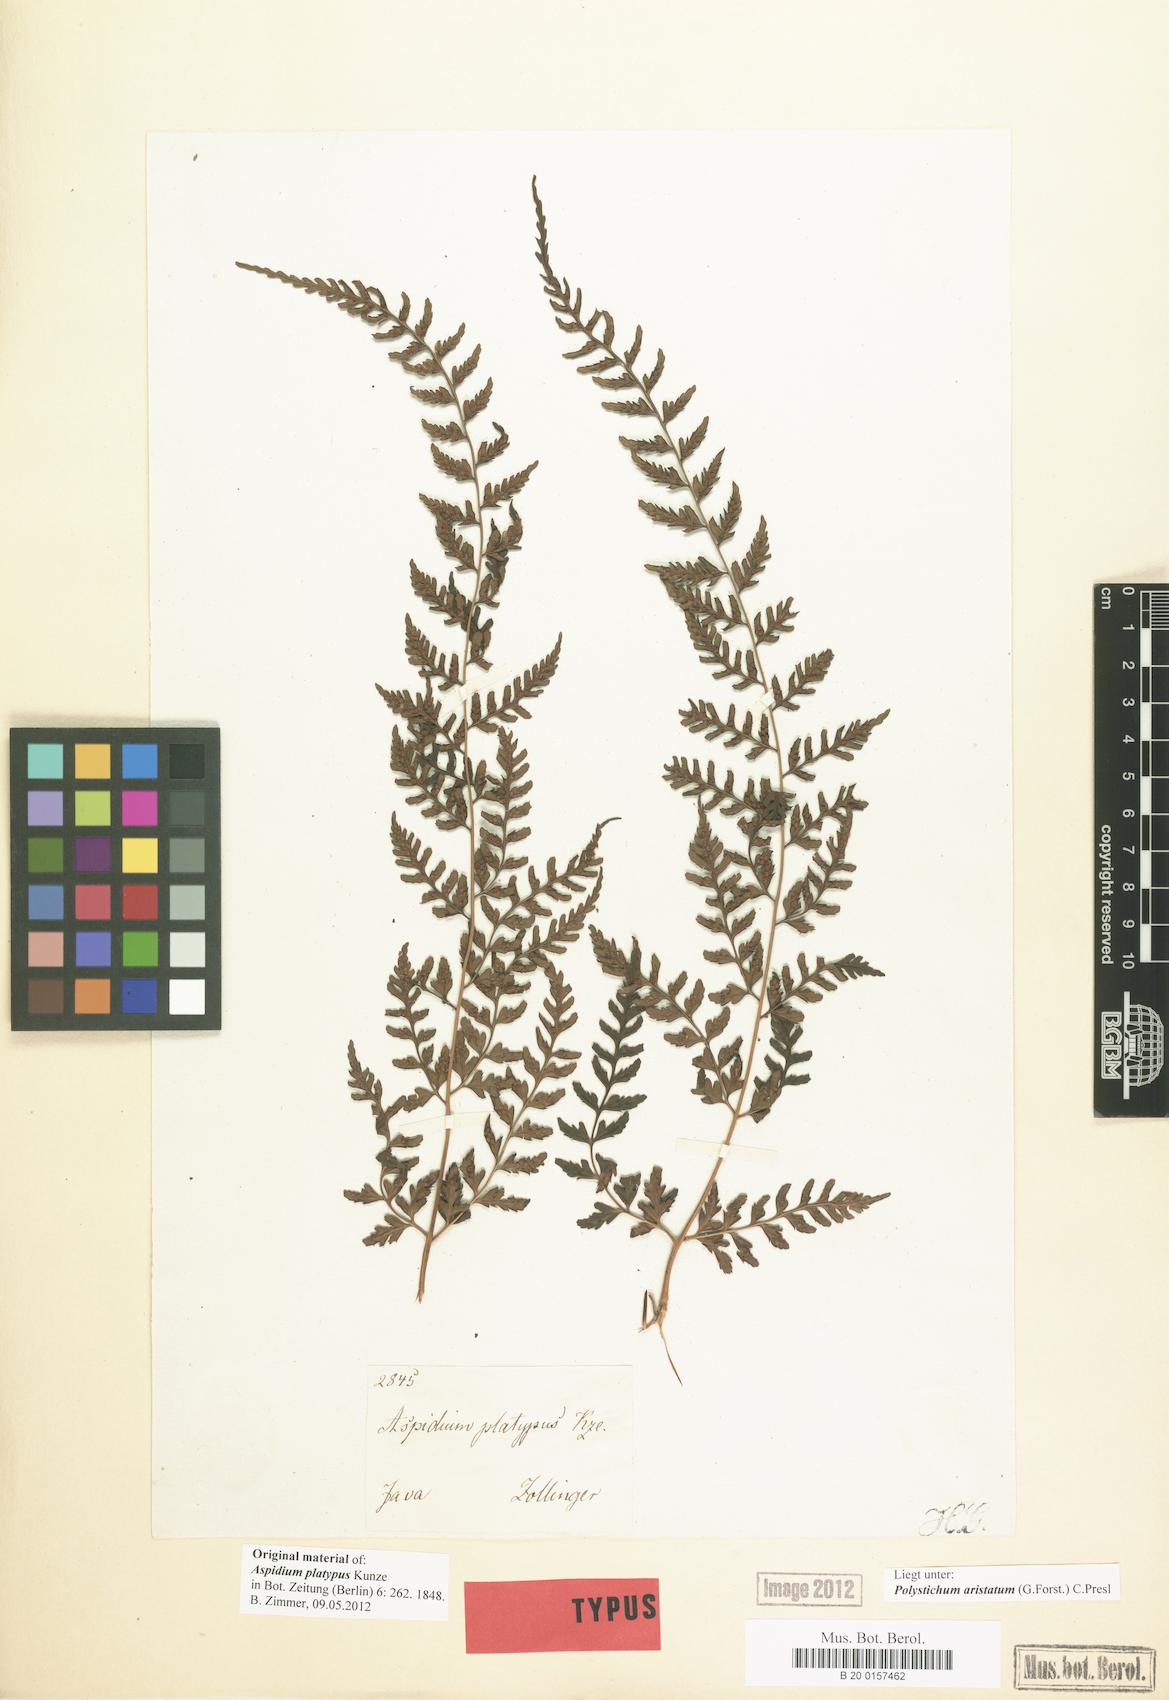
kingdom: Plantae
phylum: Tracheophyta
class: Polypodiopsida
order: Polypodiales
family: Dryopteridaceae
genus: Arachniodes
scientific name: Arachniodes aristata
